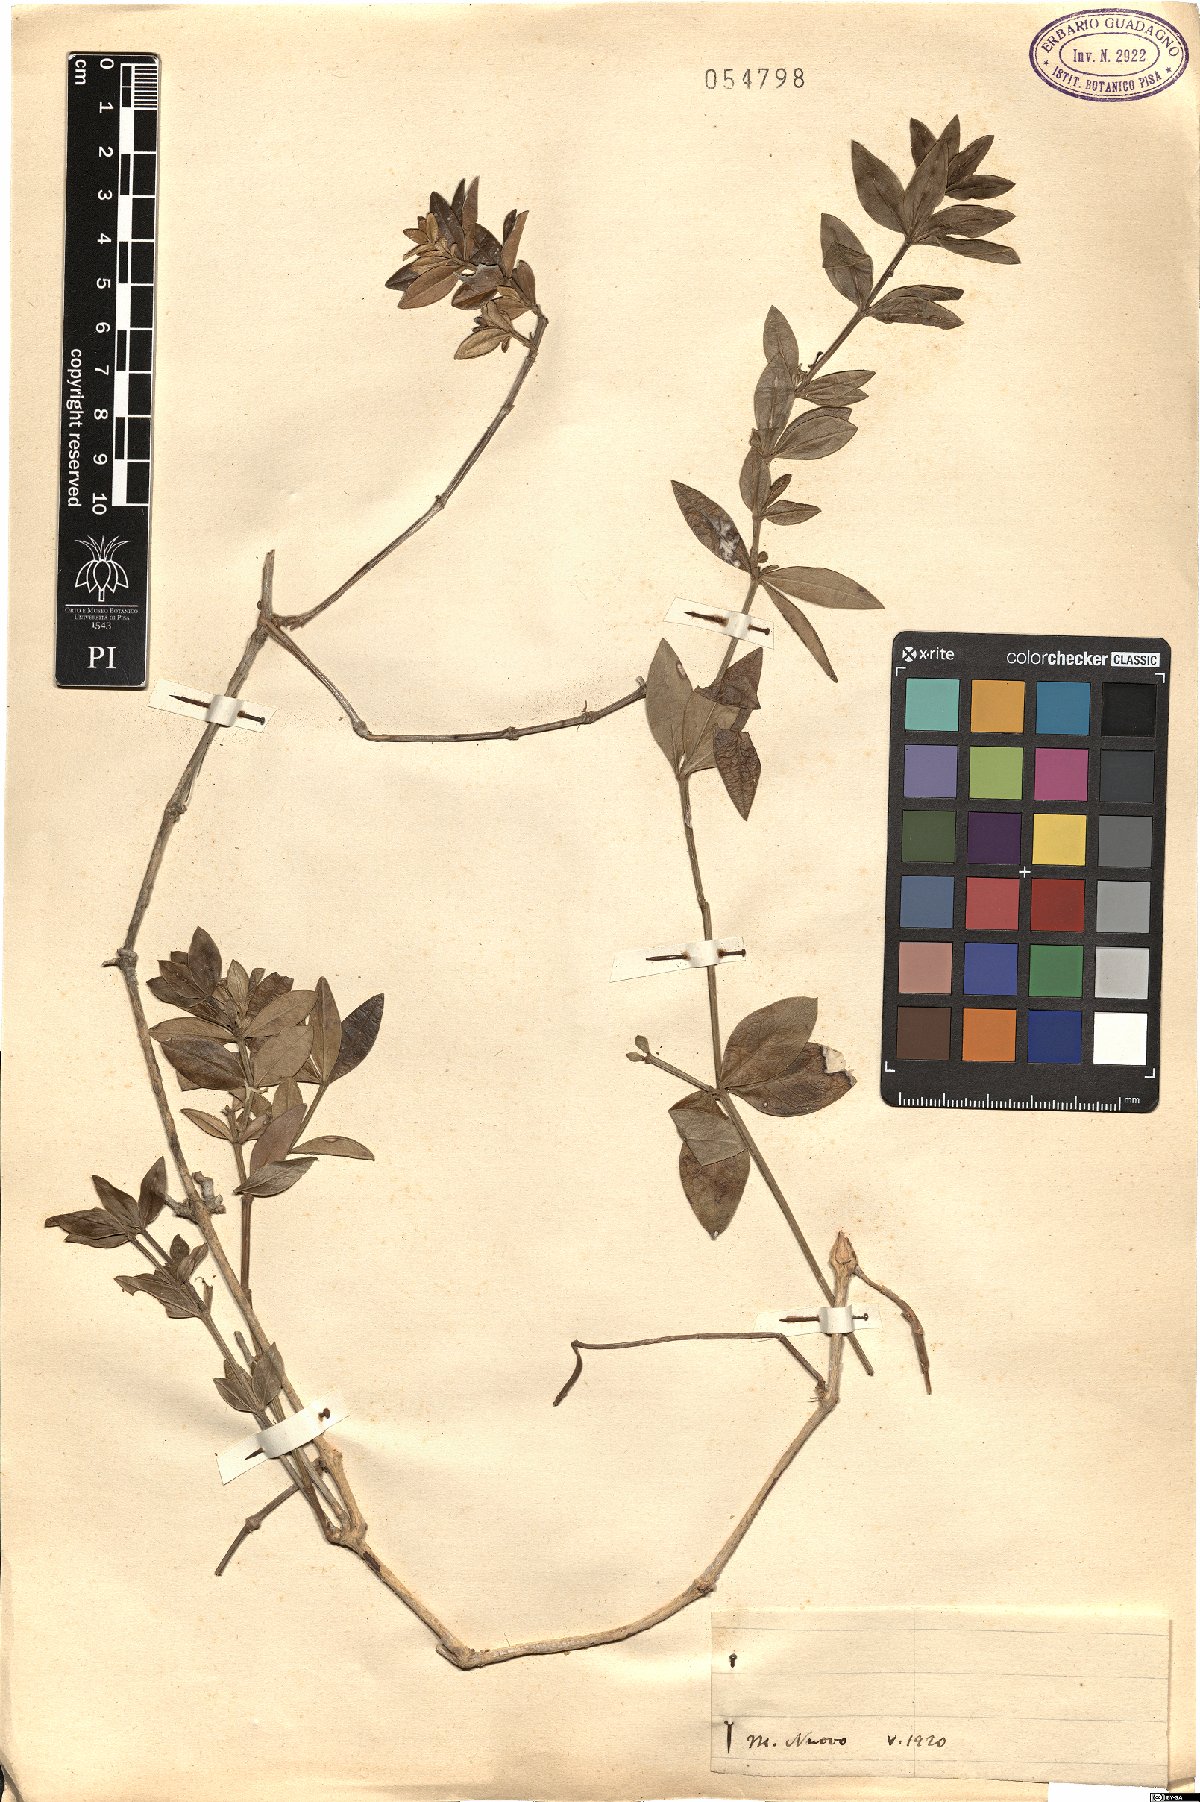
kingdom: Plantae
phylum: Tracheophyta
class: Magnoliopsida
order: Gentianales
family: Rubiaceae
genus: Rubia
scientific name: Rubia
